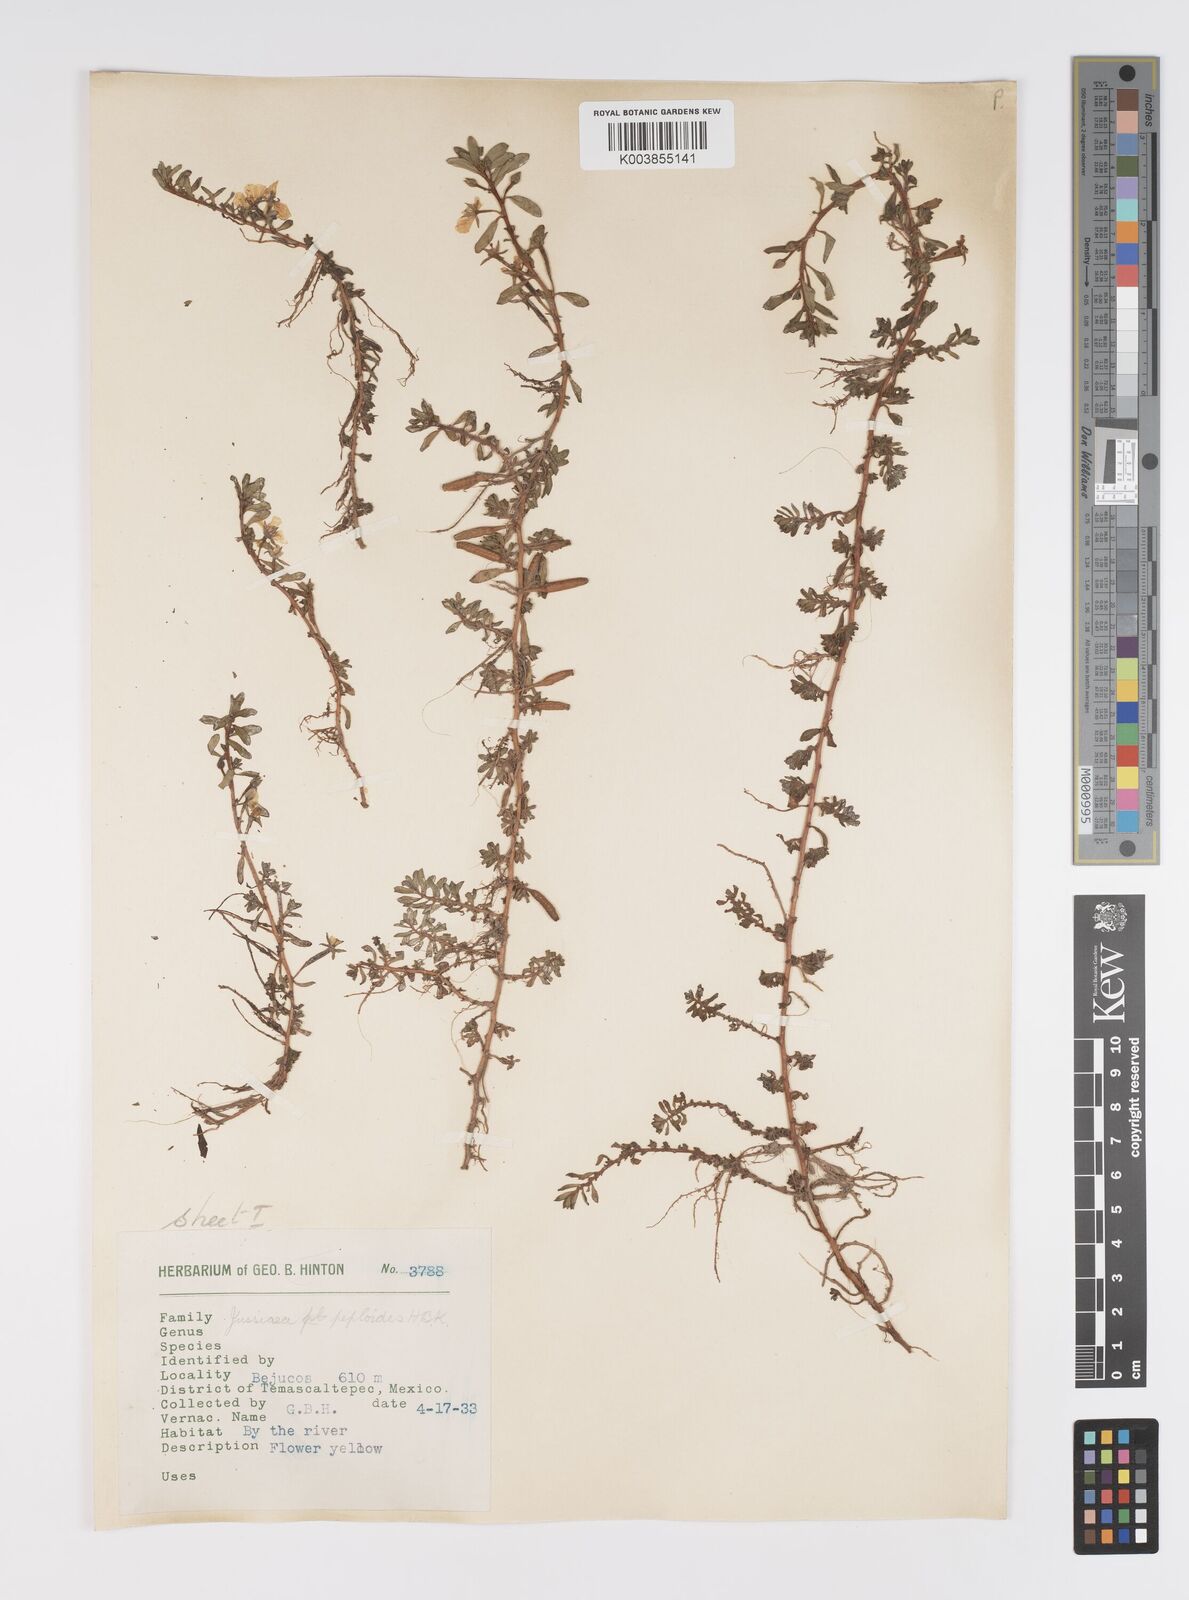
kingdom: Plantae
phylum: Tracheophyta
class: Magnoliopsida
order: Myrtales
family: Onagraceae
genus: Ludwigia
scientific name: Ludwigia adscendens
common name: Creeping water primrose
